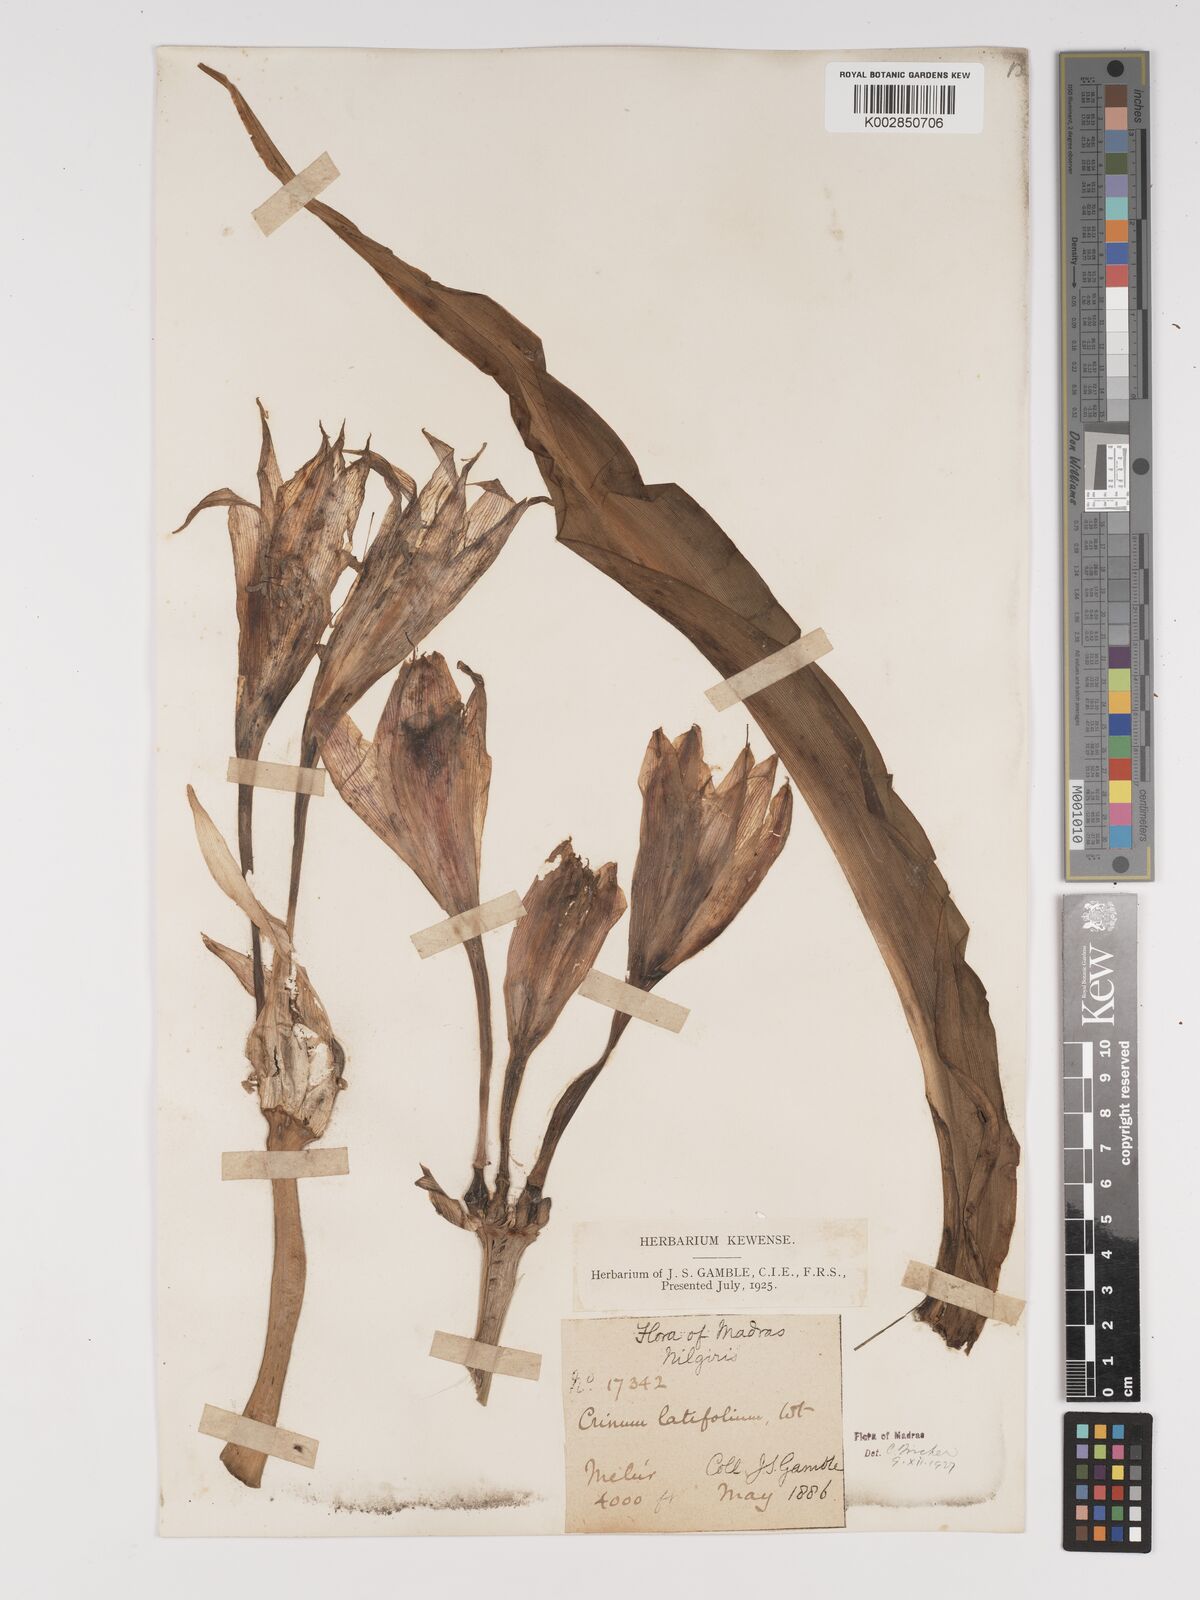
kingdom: Plantae
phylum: Tracheophyta
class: Liliopsida
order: Asparagales
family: Amaryllidaceae
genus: Crinum
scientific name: Crinum latifolium
